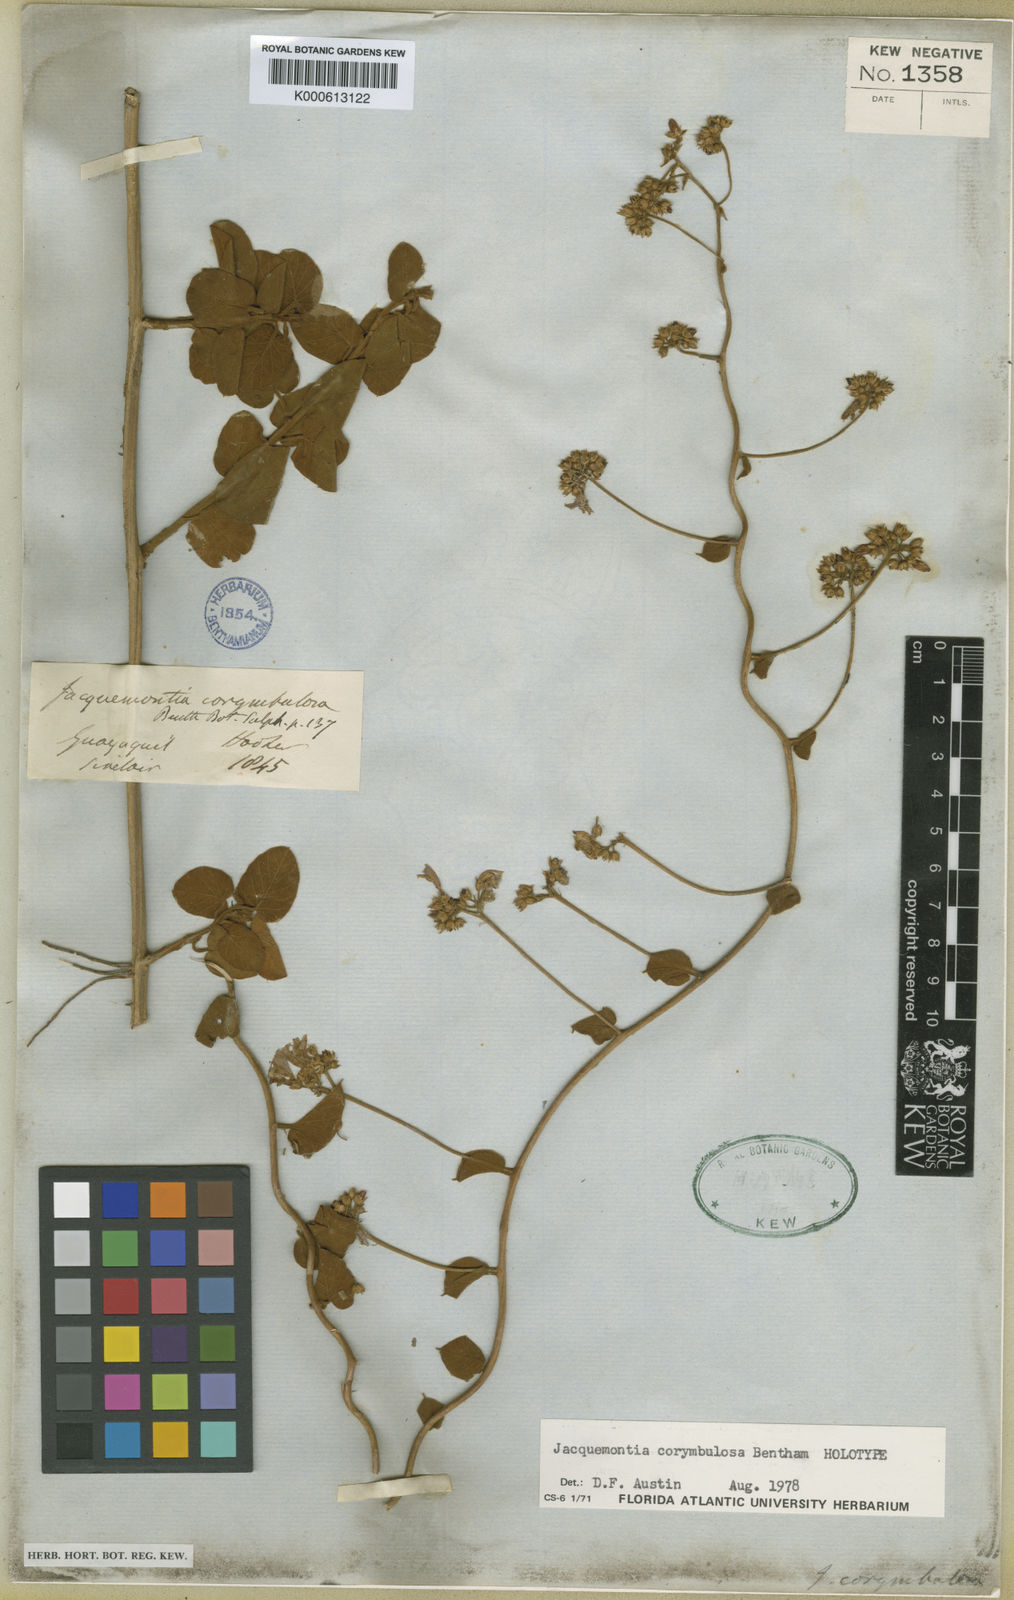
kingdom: Plantae
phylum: Tracheophyta
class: Magnoliopsida
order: Solanales
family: Convolvulaceae
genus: Jacquemontia
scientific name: Jacquemontia corymbulosa
